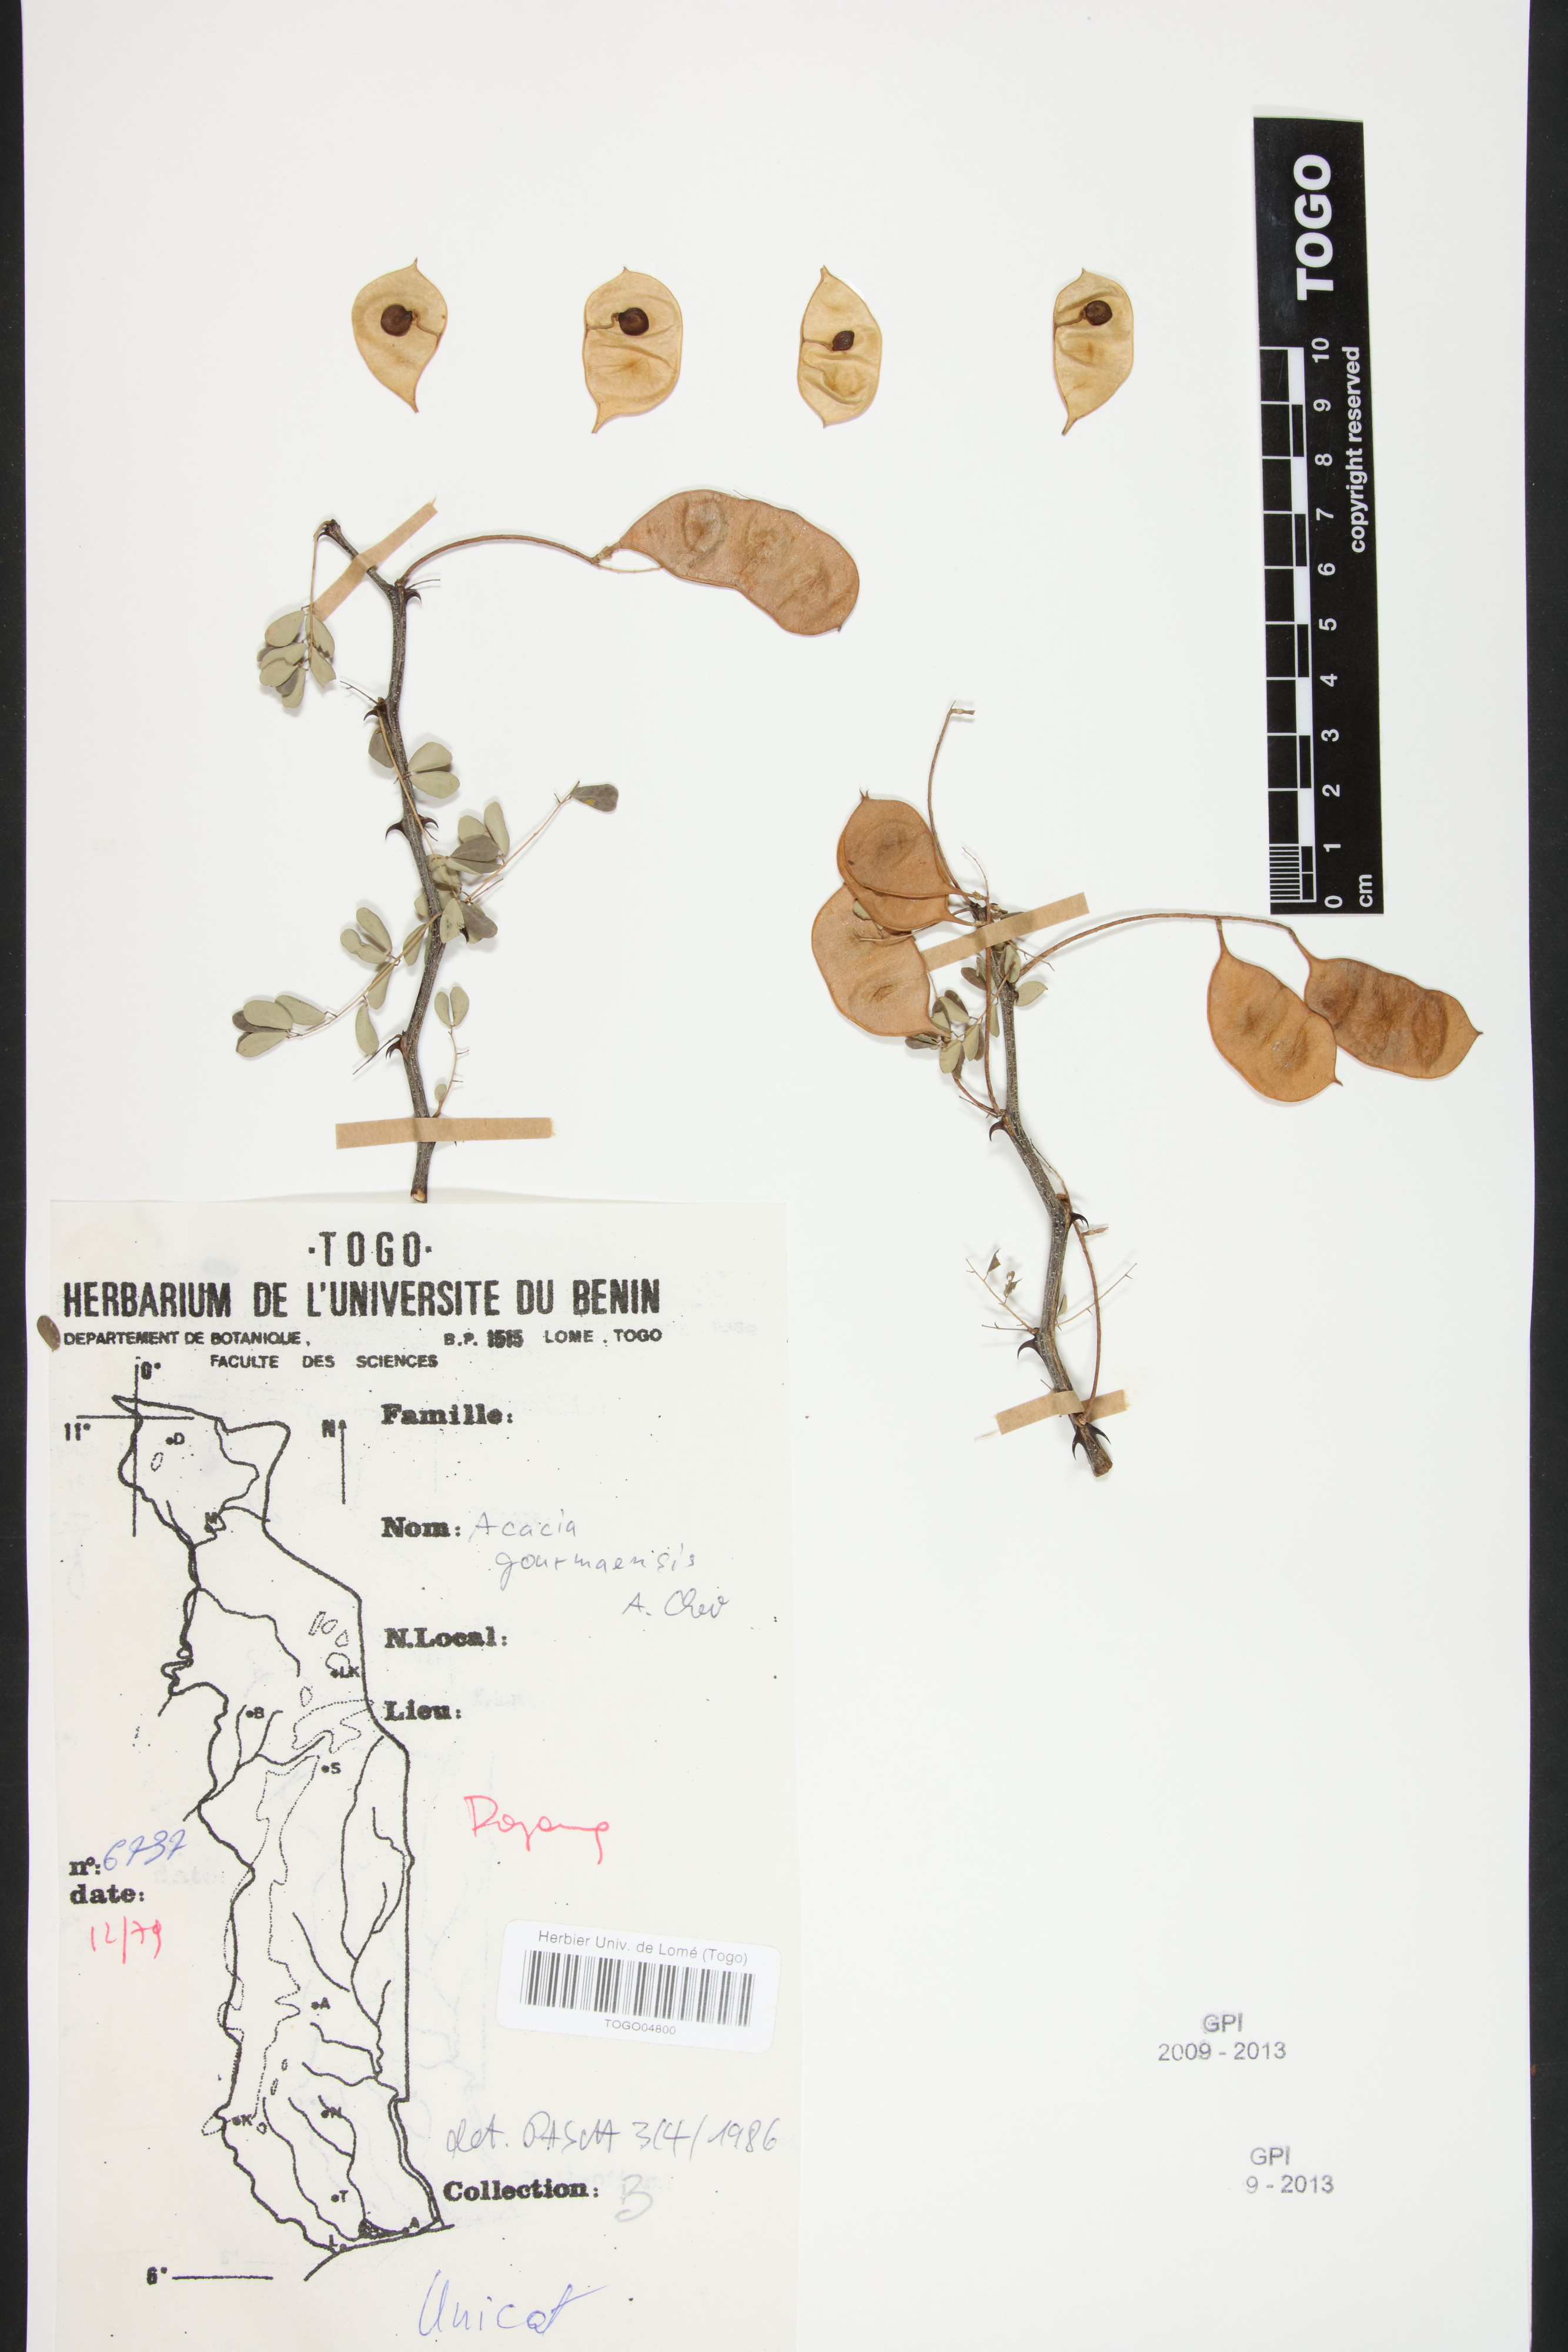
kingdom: Plantae
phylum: Tracheophyta
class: Magnoliopsida
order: Fabales
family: Fabaceae
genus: Senegalia
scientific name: Senegalia gourmaensis
